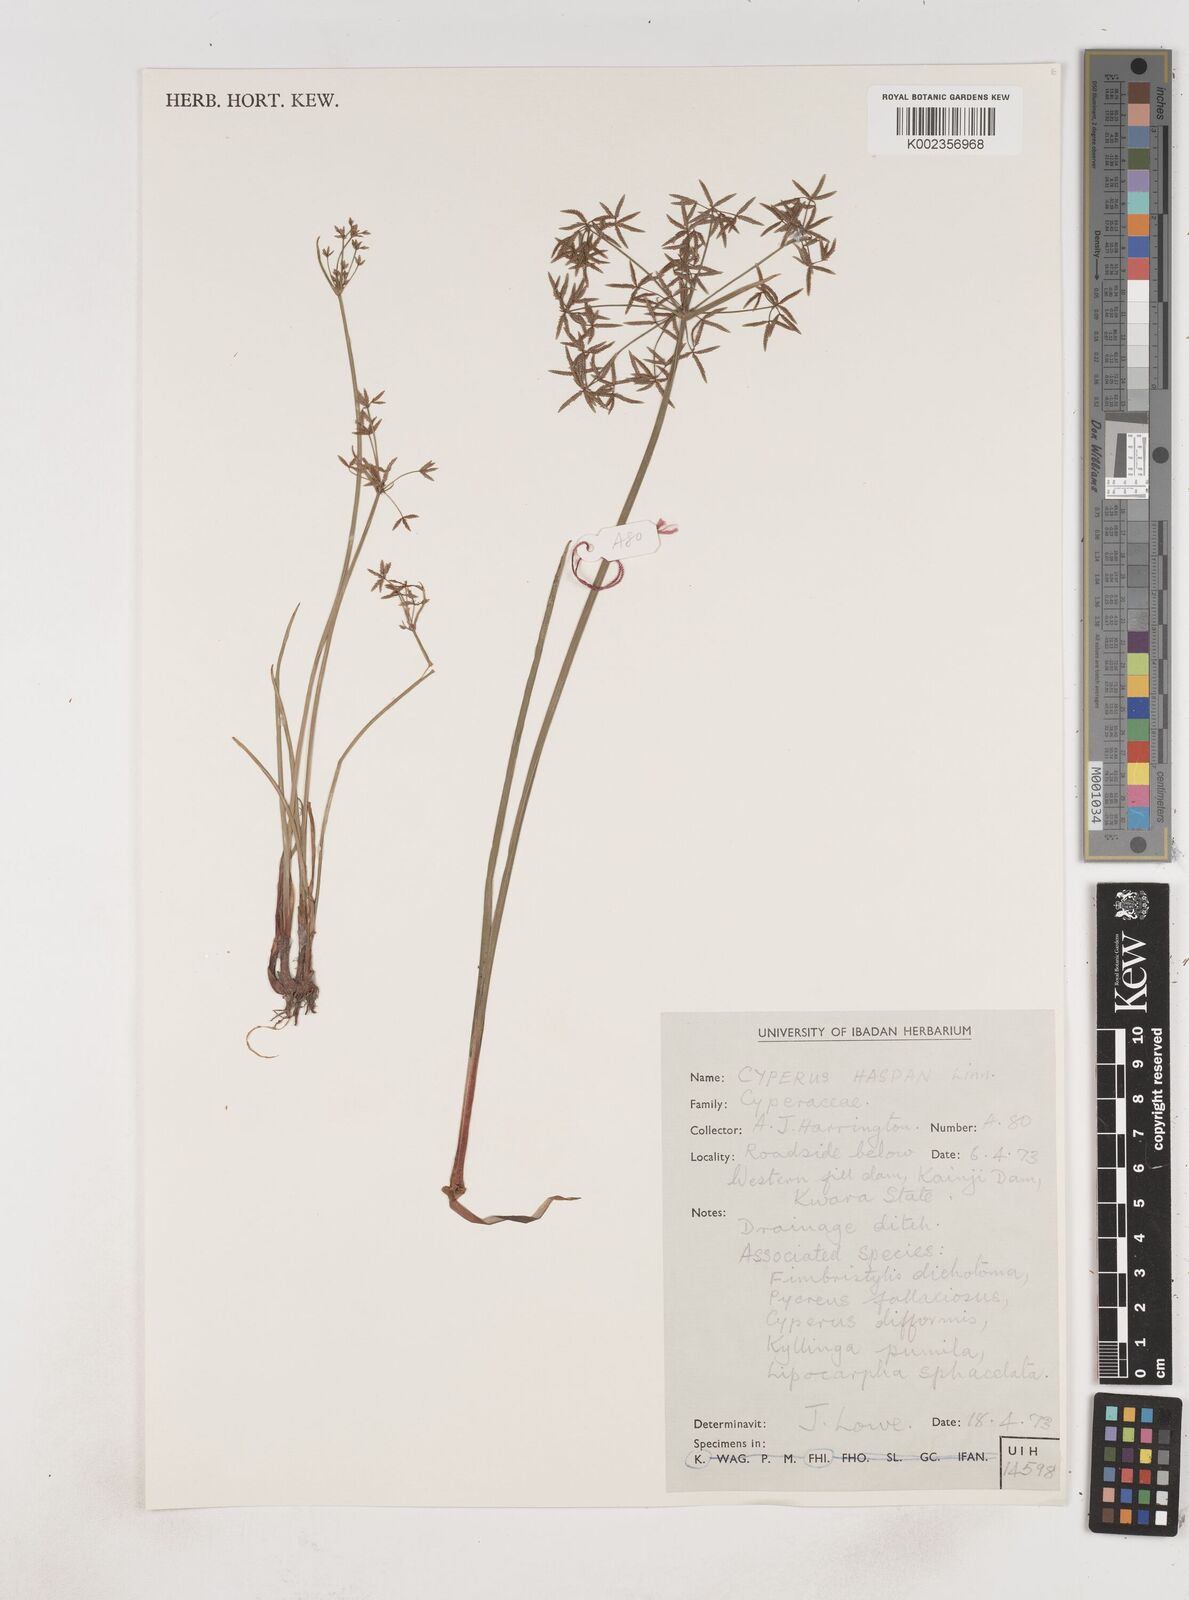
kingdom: Plantae
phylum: Tracheophyta
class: Liliopsida
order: Poales
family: Cyperaceae
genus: Cyperus
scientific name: Cyperus haspan
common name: Haspan flatsedge
